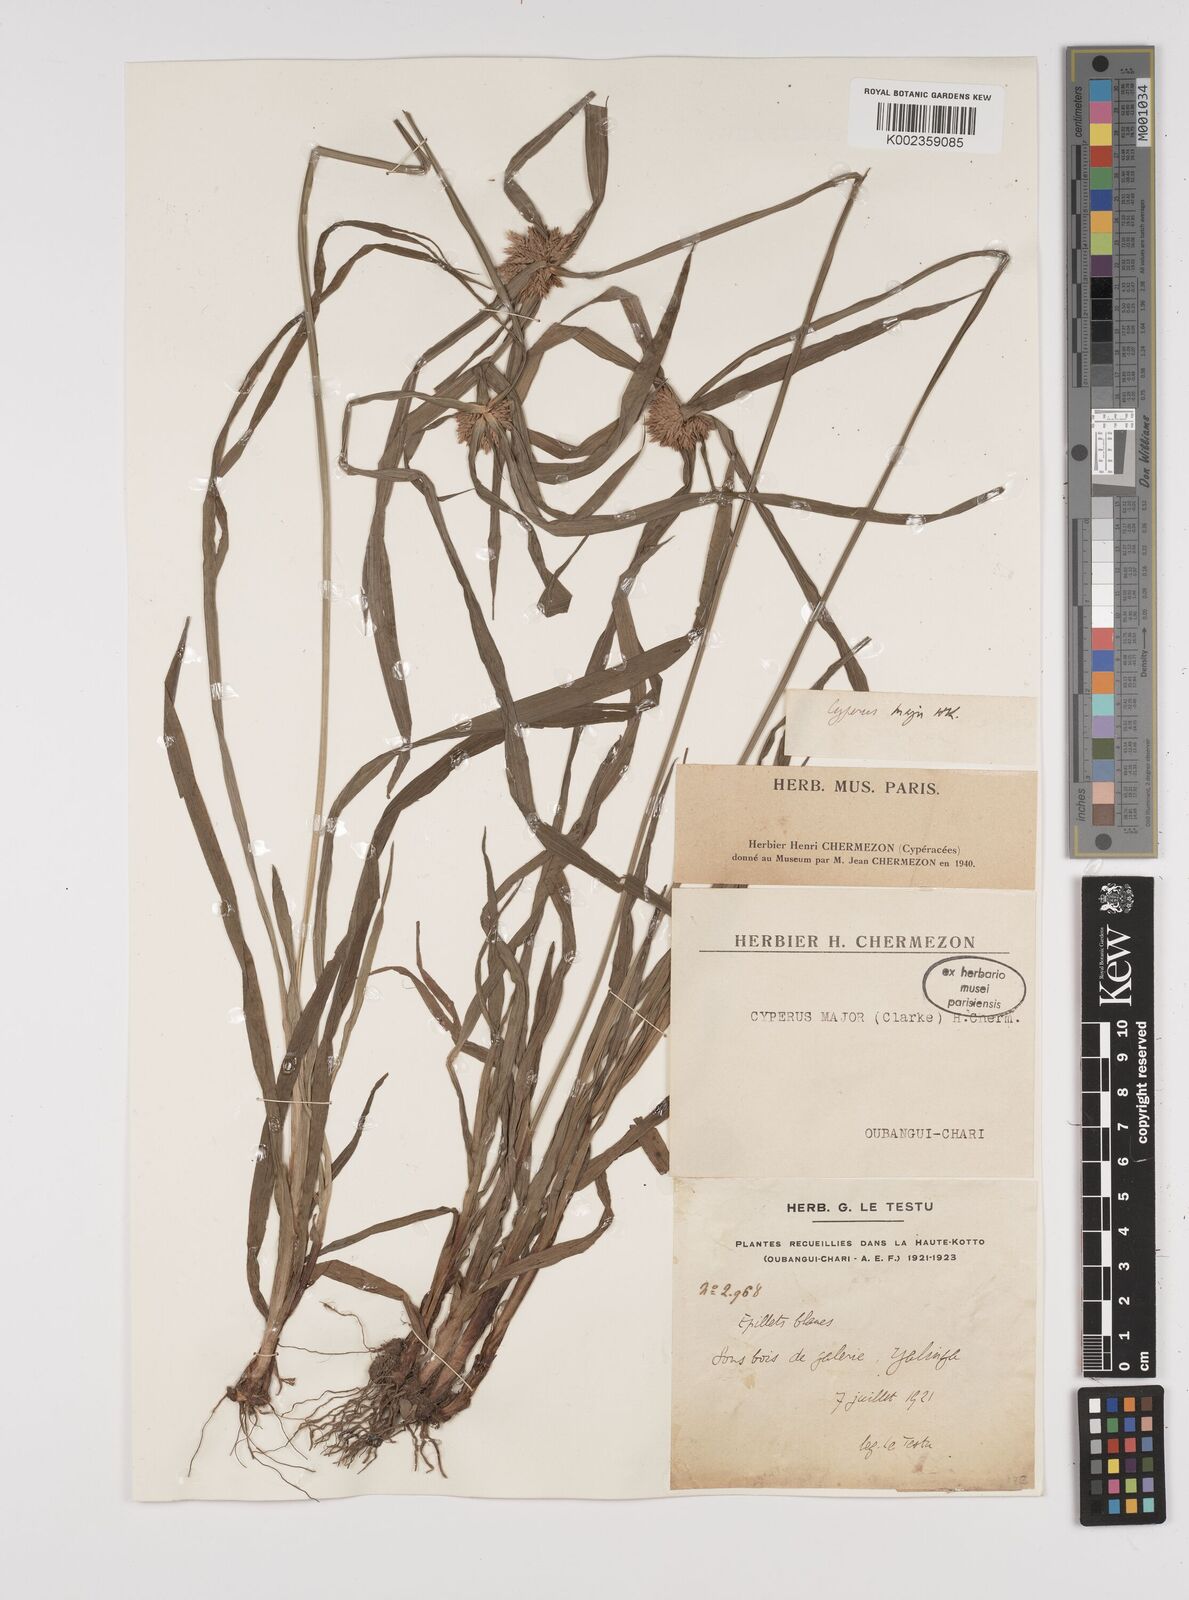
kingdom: Plantae
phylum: Tracheophyta
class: Liliopsida
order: Poales
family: Cyperaceae
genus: Cyperus
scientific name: Cyperus mapanioides
